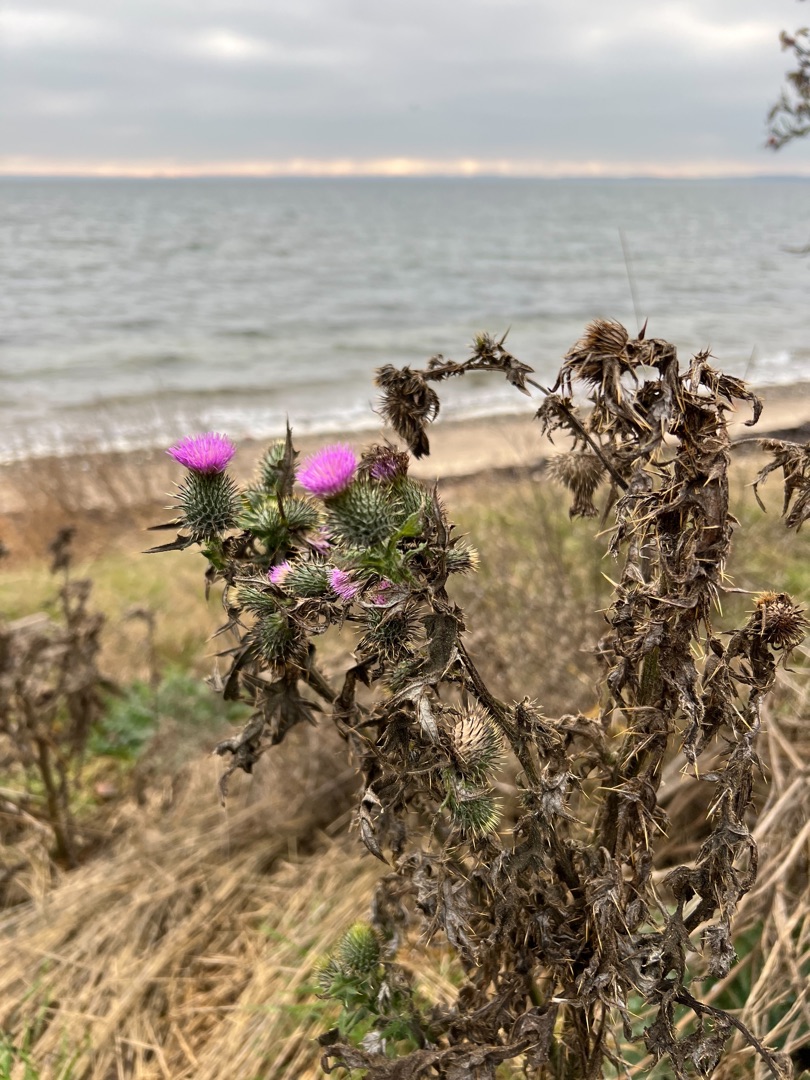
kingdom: Plantae
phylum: Tracheophyta
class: Magnoliopsida
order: Asterales
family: Asteraceae
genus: Cirsium
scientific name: Cirsium vulgare
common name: Horse-tidsel
